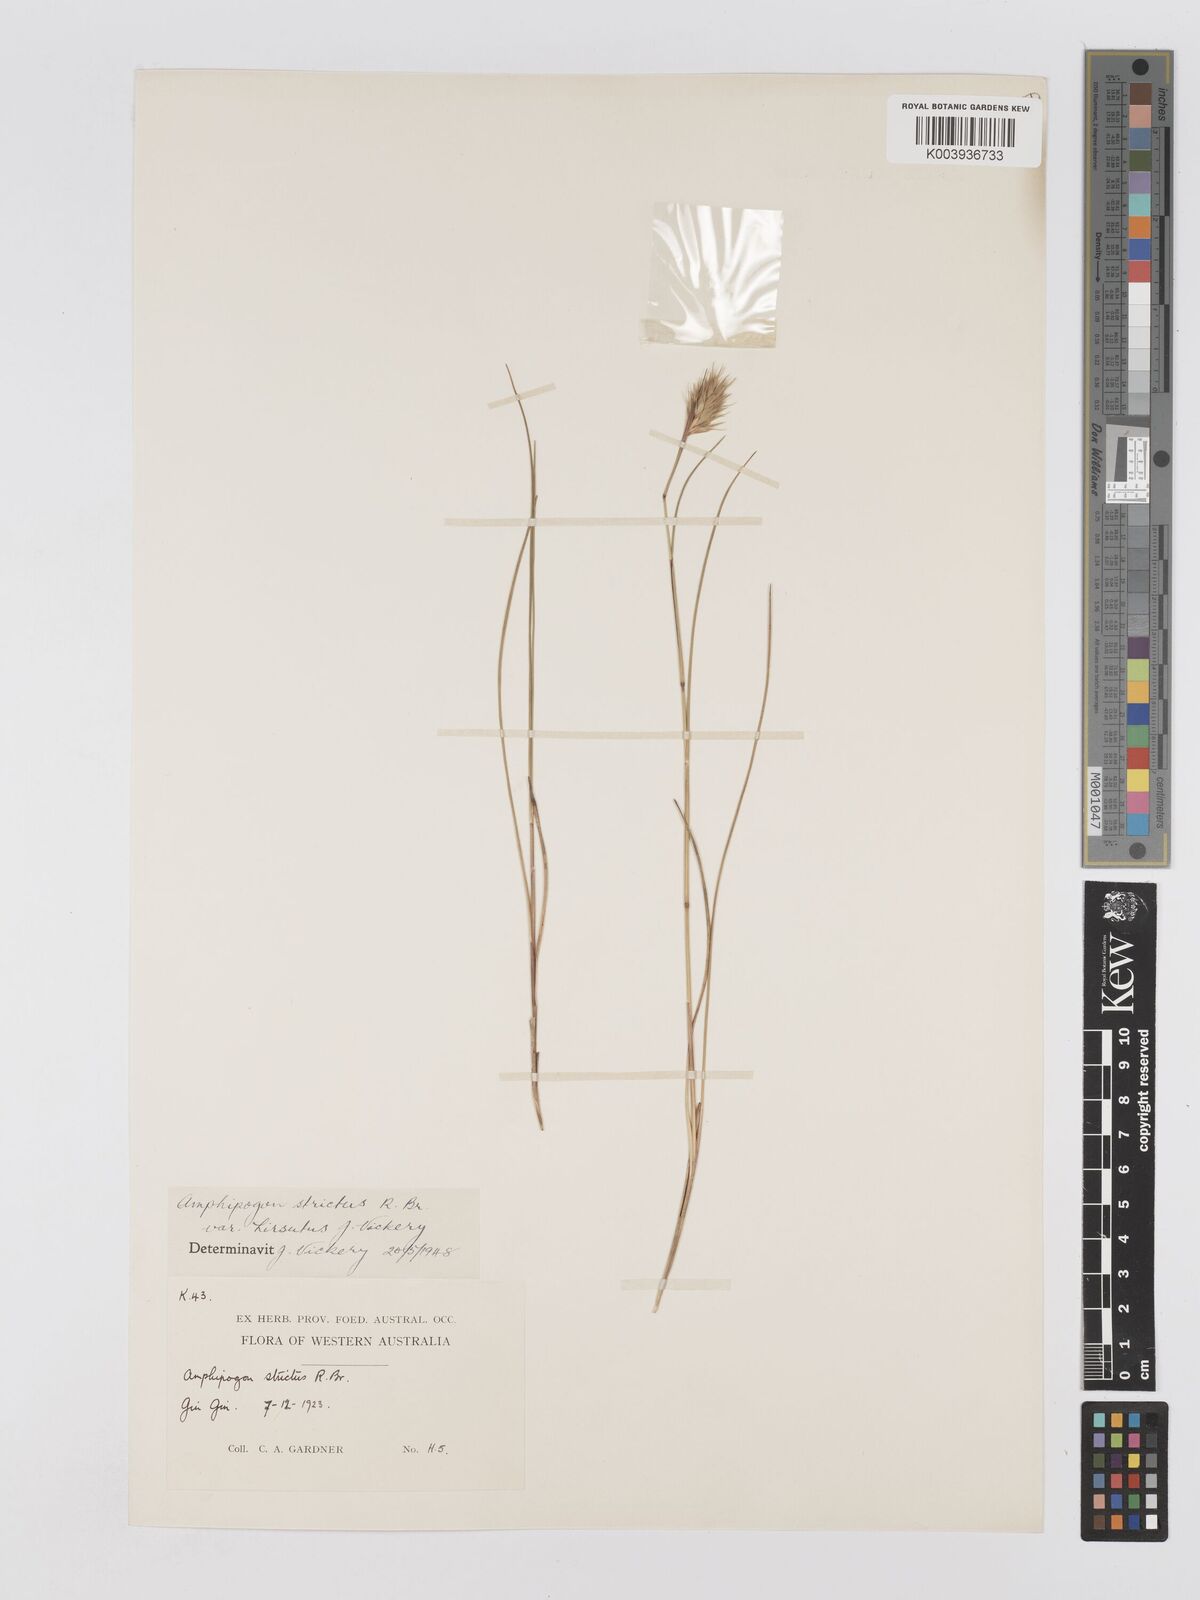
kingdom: Plantae
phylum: Tracheophyta
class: Liliopsida
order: Poales
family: Poaceae
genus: Amphipogon
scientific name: Amphipogon strictus
